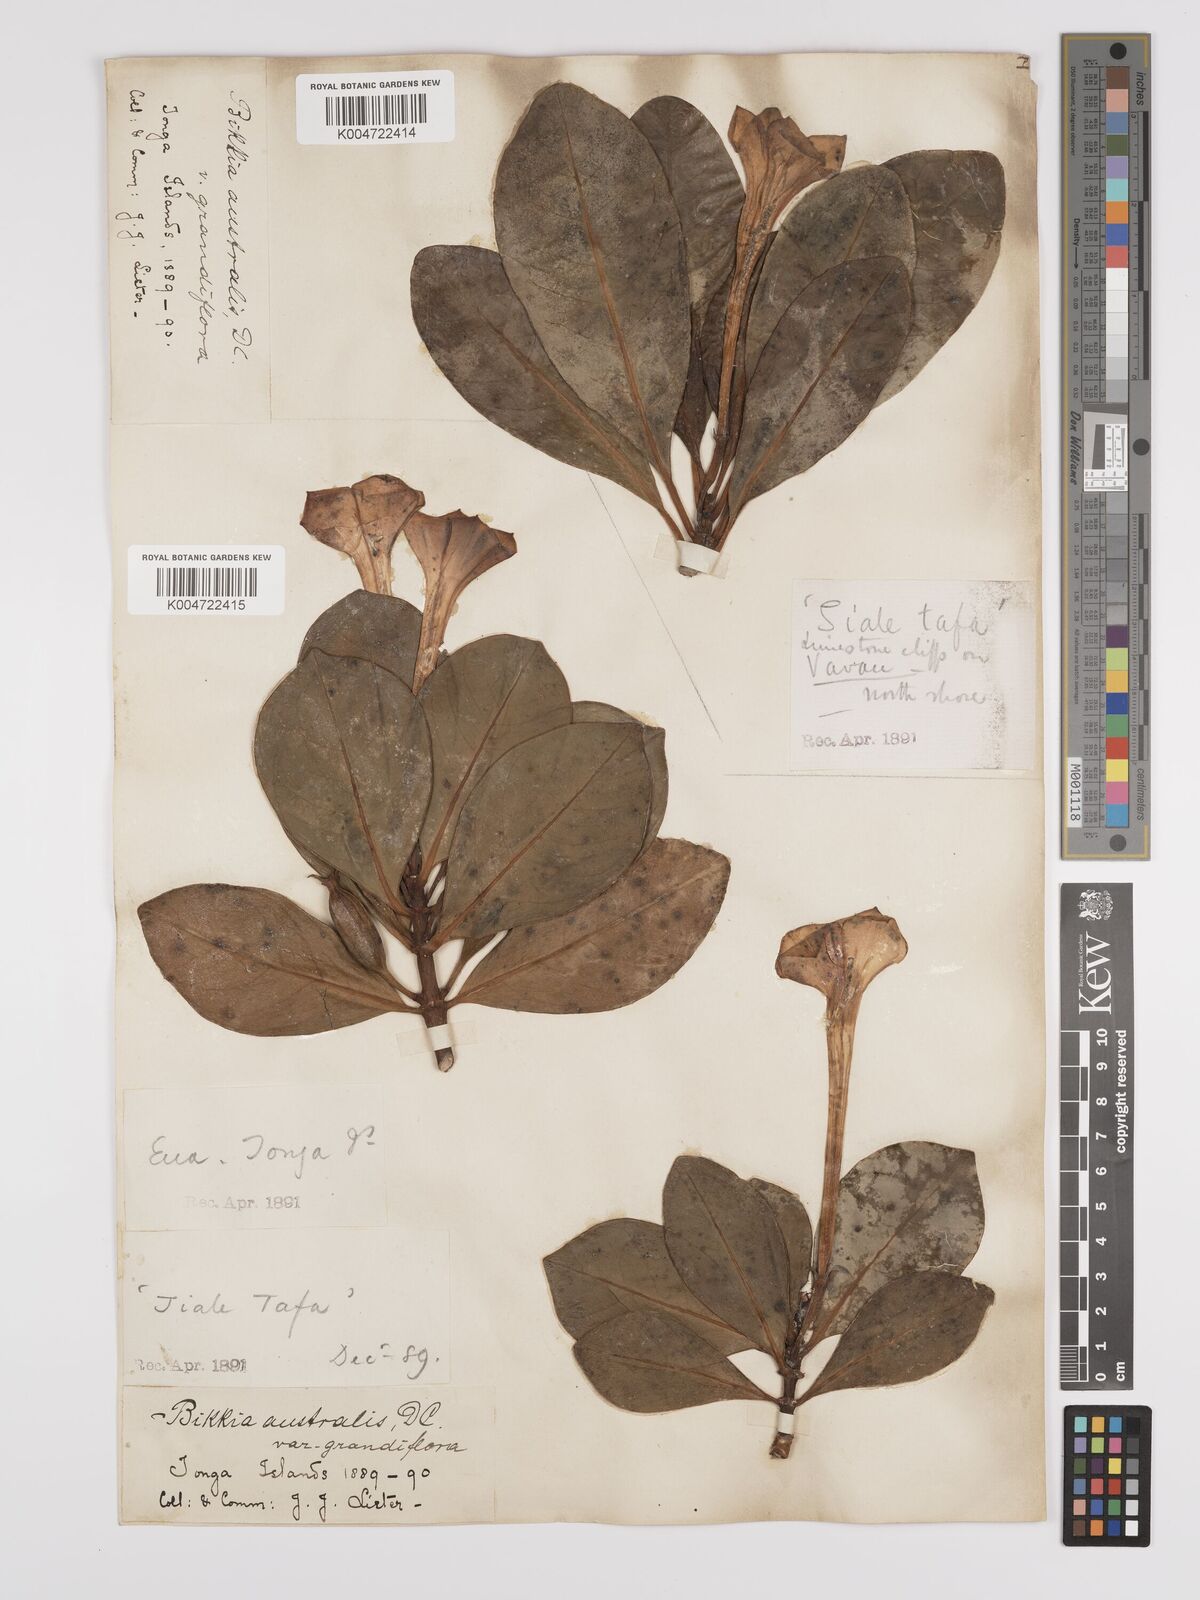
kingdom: Plantae
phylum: Tracheophyta
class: Magnoliopsida
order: Gentianales
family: Rubiaceae
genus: Bikkia
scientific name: Bikkia
